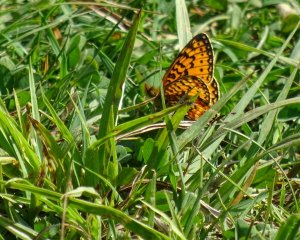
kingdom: Animalia
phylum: Arthropoda
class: Insecta
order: Lepidoptera
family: Nymphalidae
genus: Boloria
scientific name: Boloria selene
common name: Silver-bordered Fritillary
